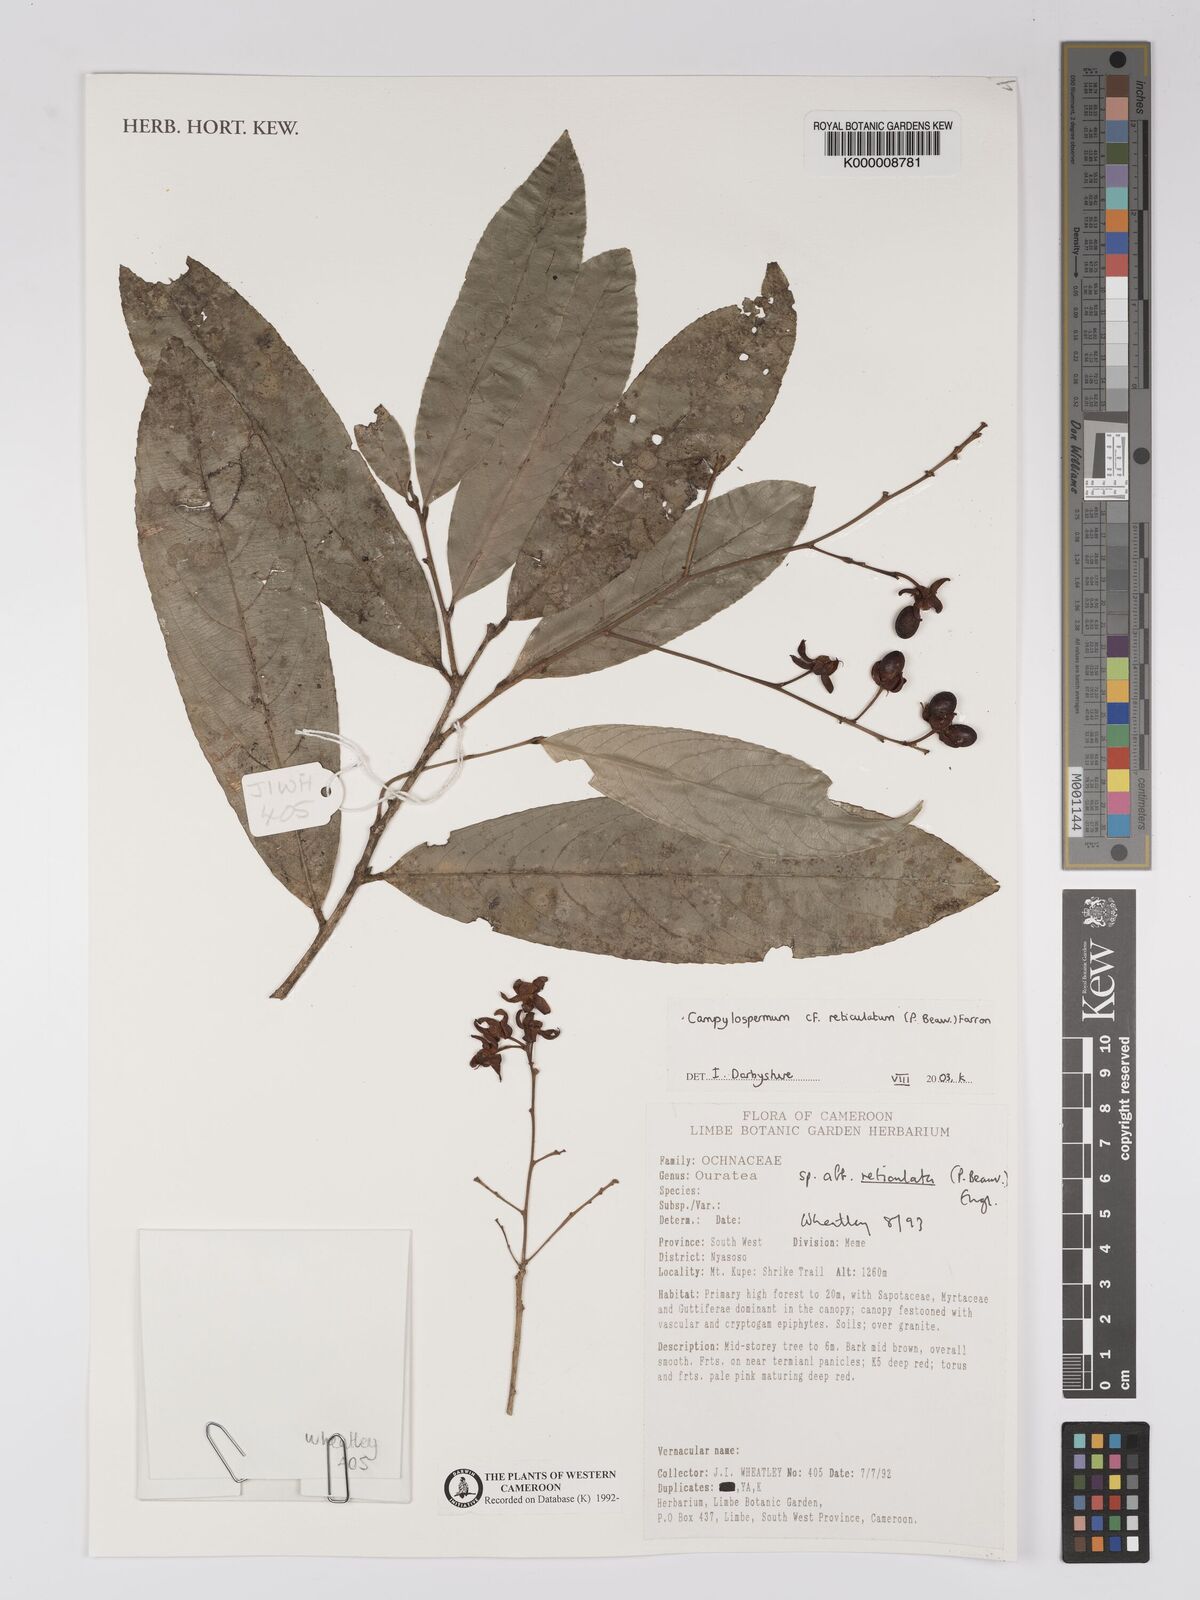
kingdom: Plantae
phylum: Tracheophyta
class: Magnoliopsida
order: Malpighiales
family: Ochnaceae
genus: Campylospermum
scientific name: Campylospermum reticulatum
